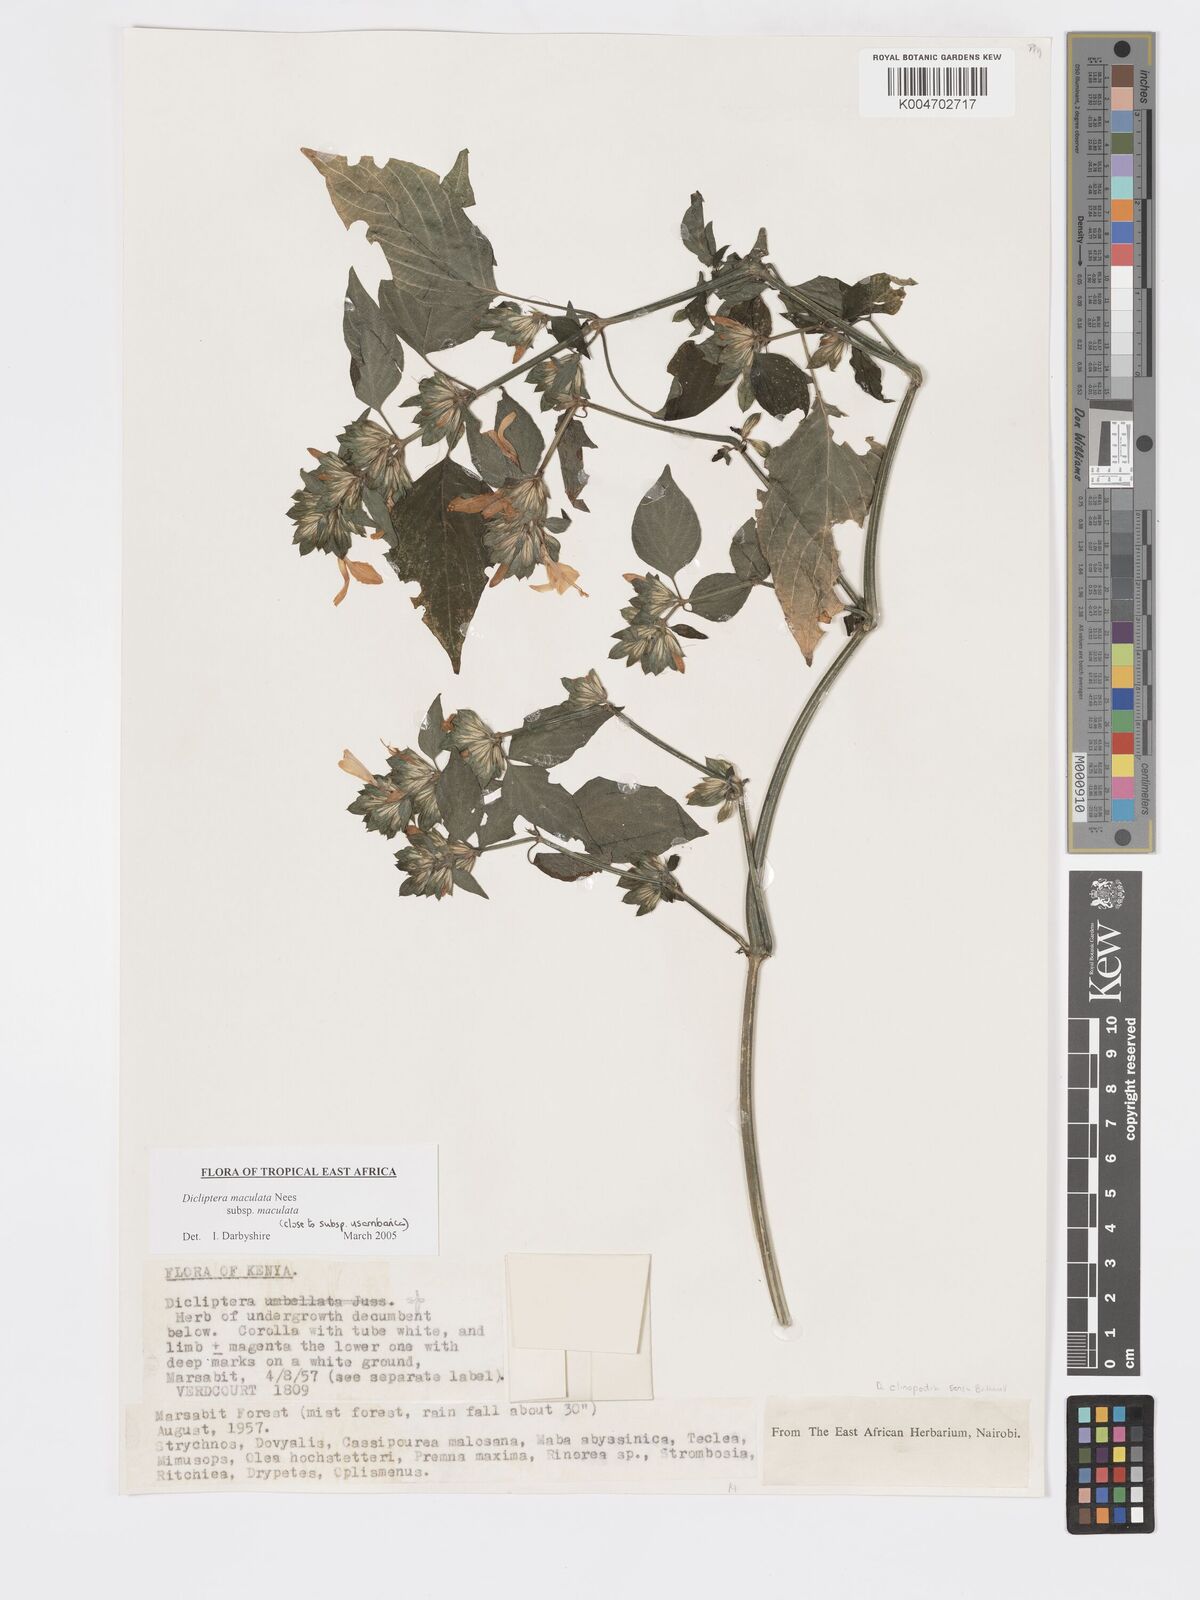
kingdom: Plantae
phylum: Tracheophyta
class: Magnoliopsida
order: Lamiales
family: Acanthaceae
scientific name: Acanthaceae
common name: Acanthaceae
